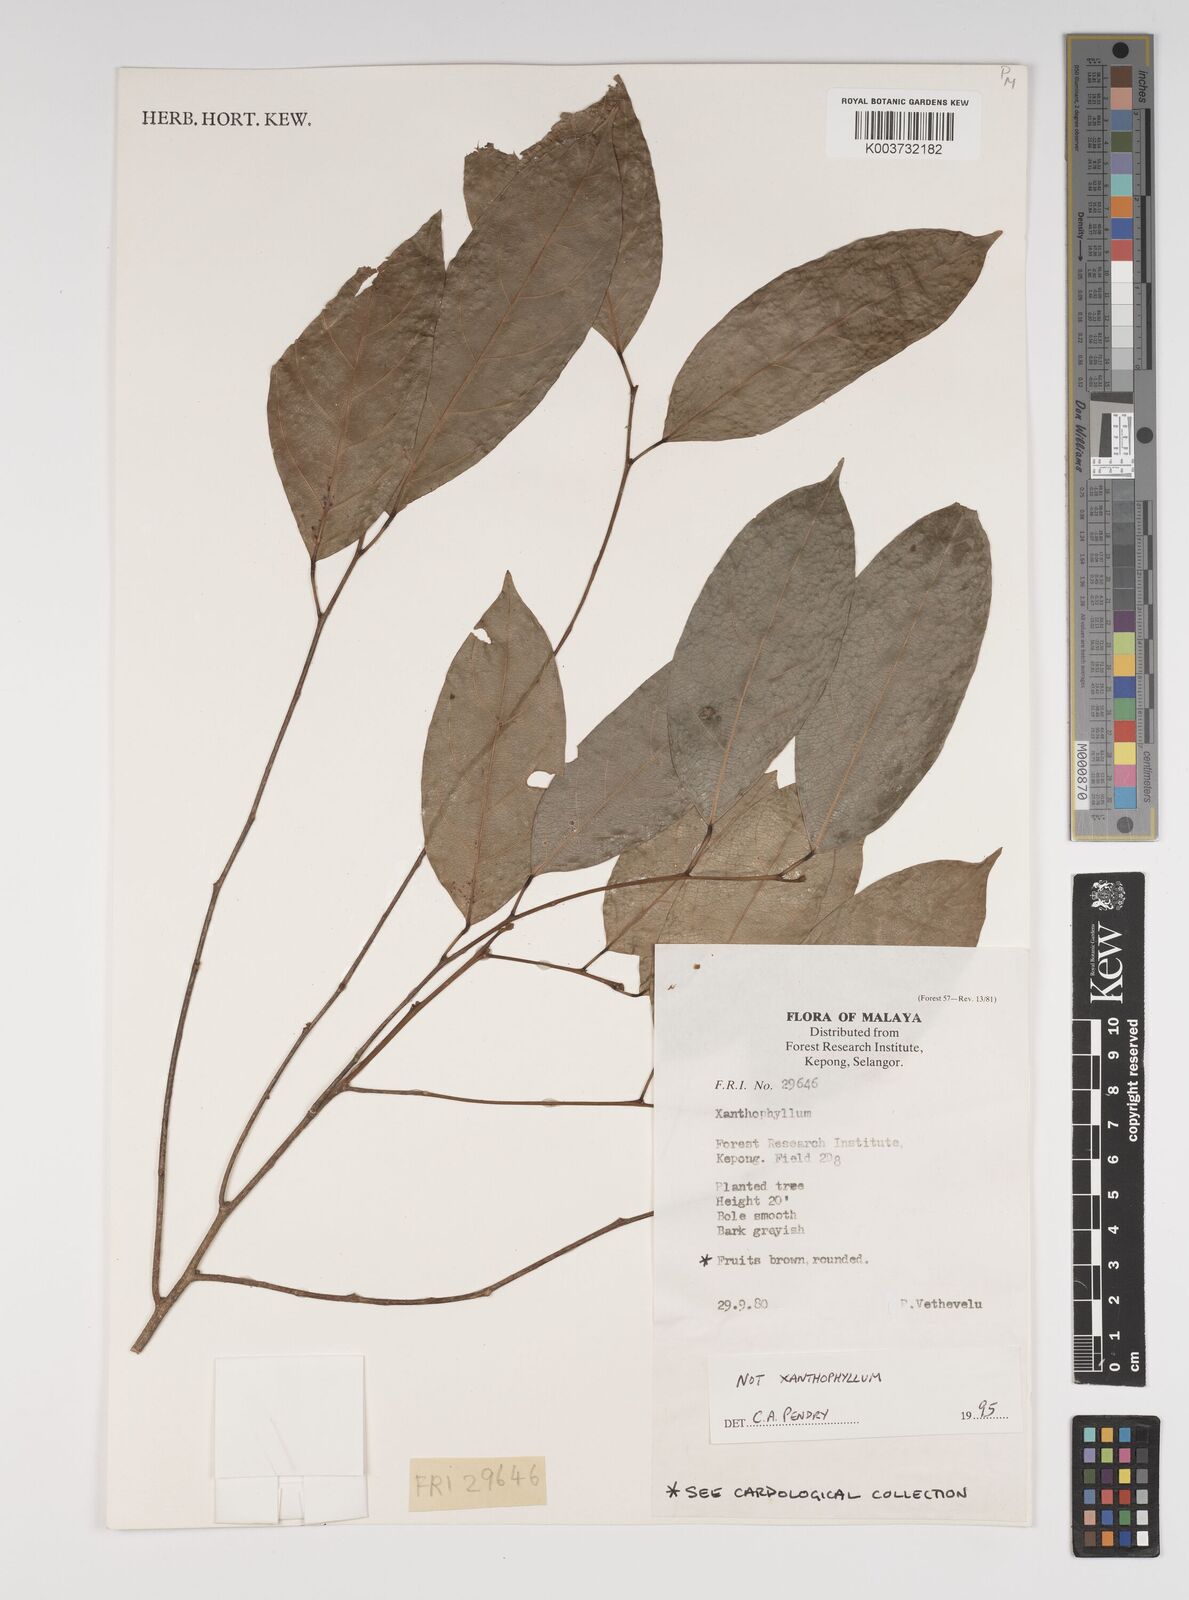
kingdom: Plantae
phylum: Tracheophyta
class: Magnoliopsida
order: Fabales
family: Polygalaceae
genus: Xanthophyllum
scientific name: Xanthophyllum
